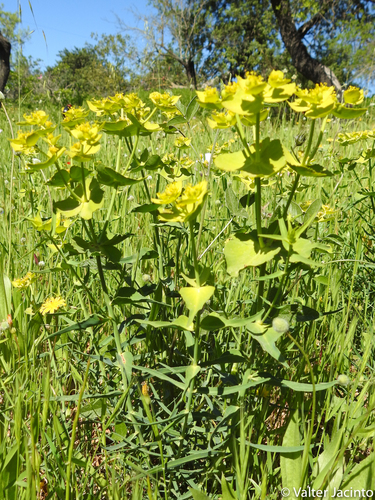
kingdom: Plantae
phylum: Tracheophyta
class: Magnoliopsida
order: Malpighiales
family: Euphorbiaceae
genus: Euphorbia
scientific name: Euphorbia serrata
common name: Serrate spurge
